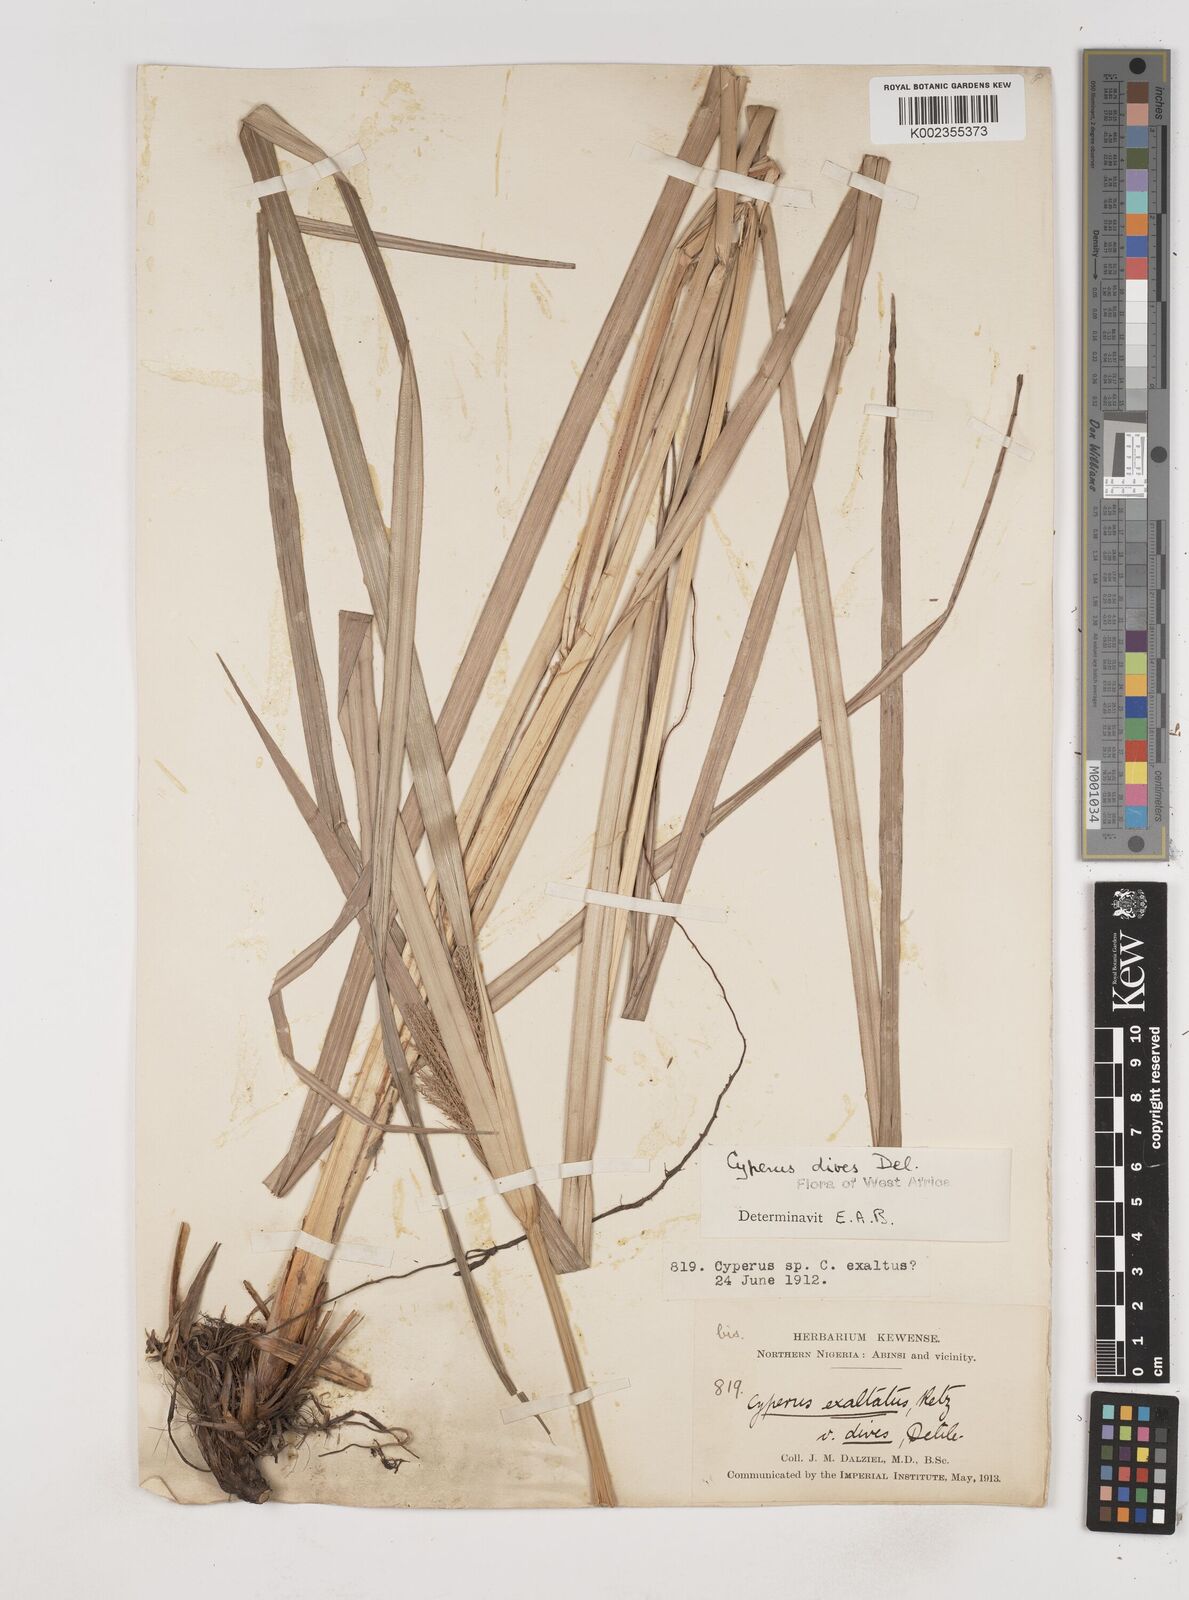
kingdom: Plantae
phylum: Tracheophyta
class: Liliopsida
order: Poales
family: Cyperaceae
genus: Cyperus
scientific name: Cyperus exaltatus
